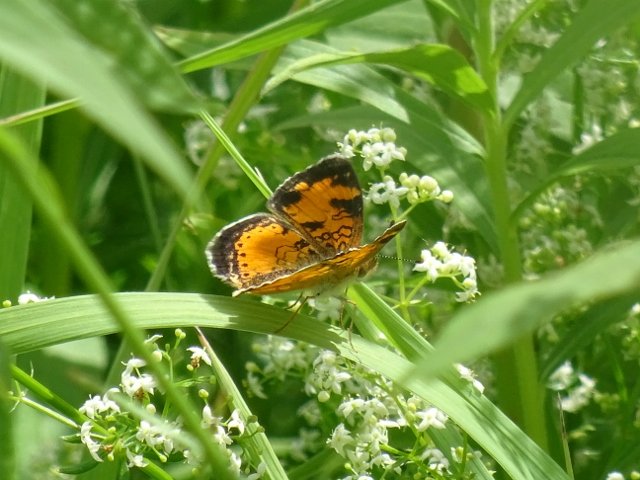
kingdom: Animalia
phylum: Arthropoda
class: Insecta
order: Lepidoptera
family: Nymphalidae
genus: Phyciodes
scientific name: Phyciodes tharos
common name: Pearl Crescent
